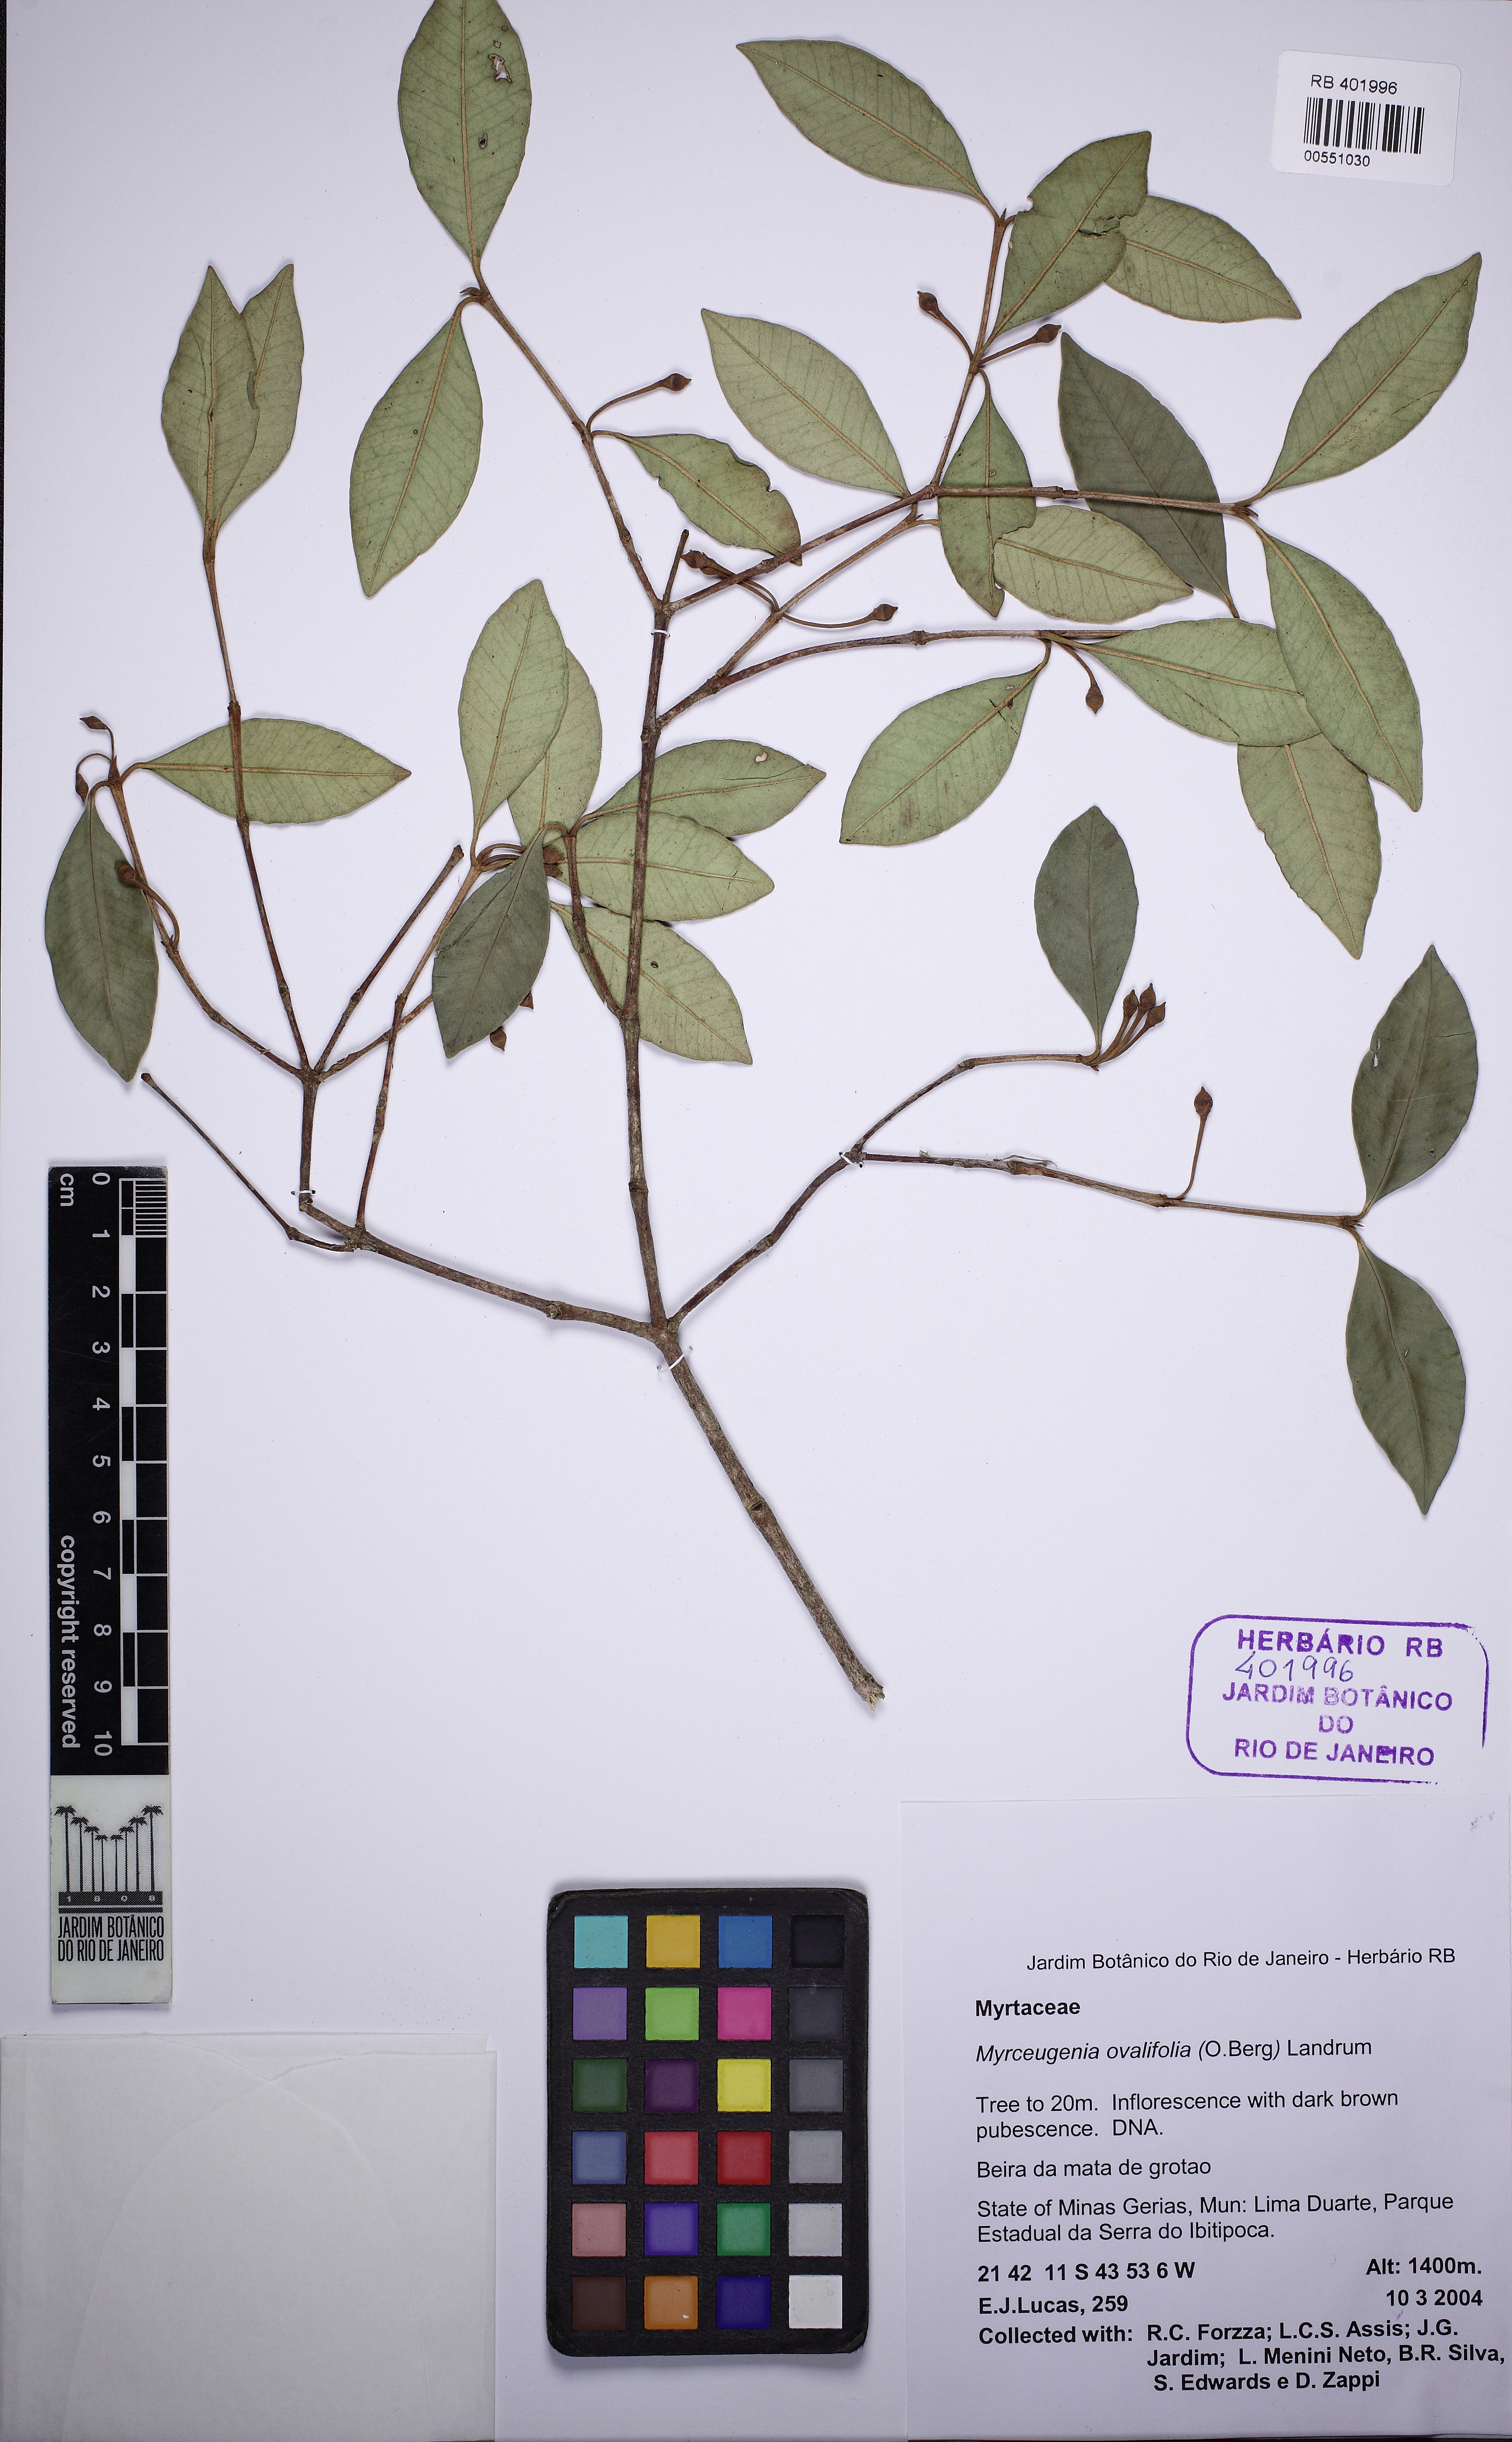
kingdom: Plantae
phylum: Tracheophyta
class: Magnoliopsida
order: Myrtales
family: Myrtaceae
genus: Myrceugenia
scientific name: Myrceugenia ovalifolia
